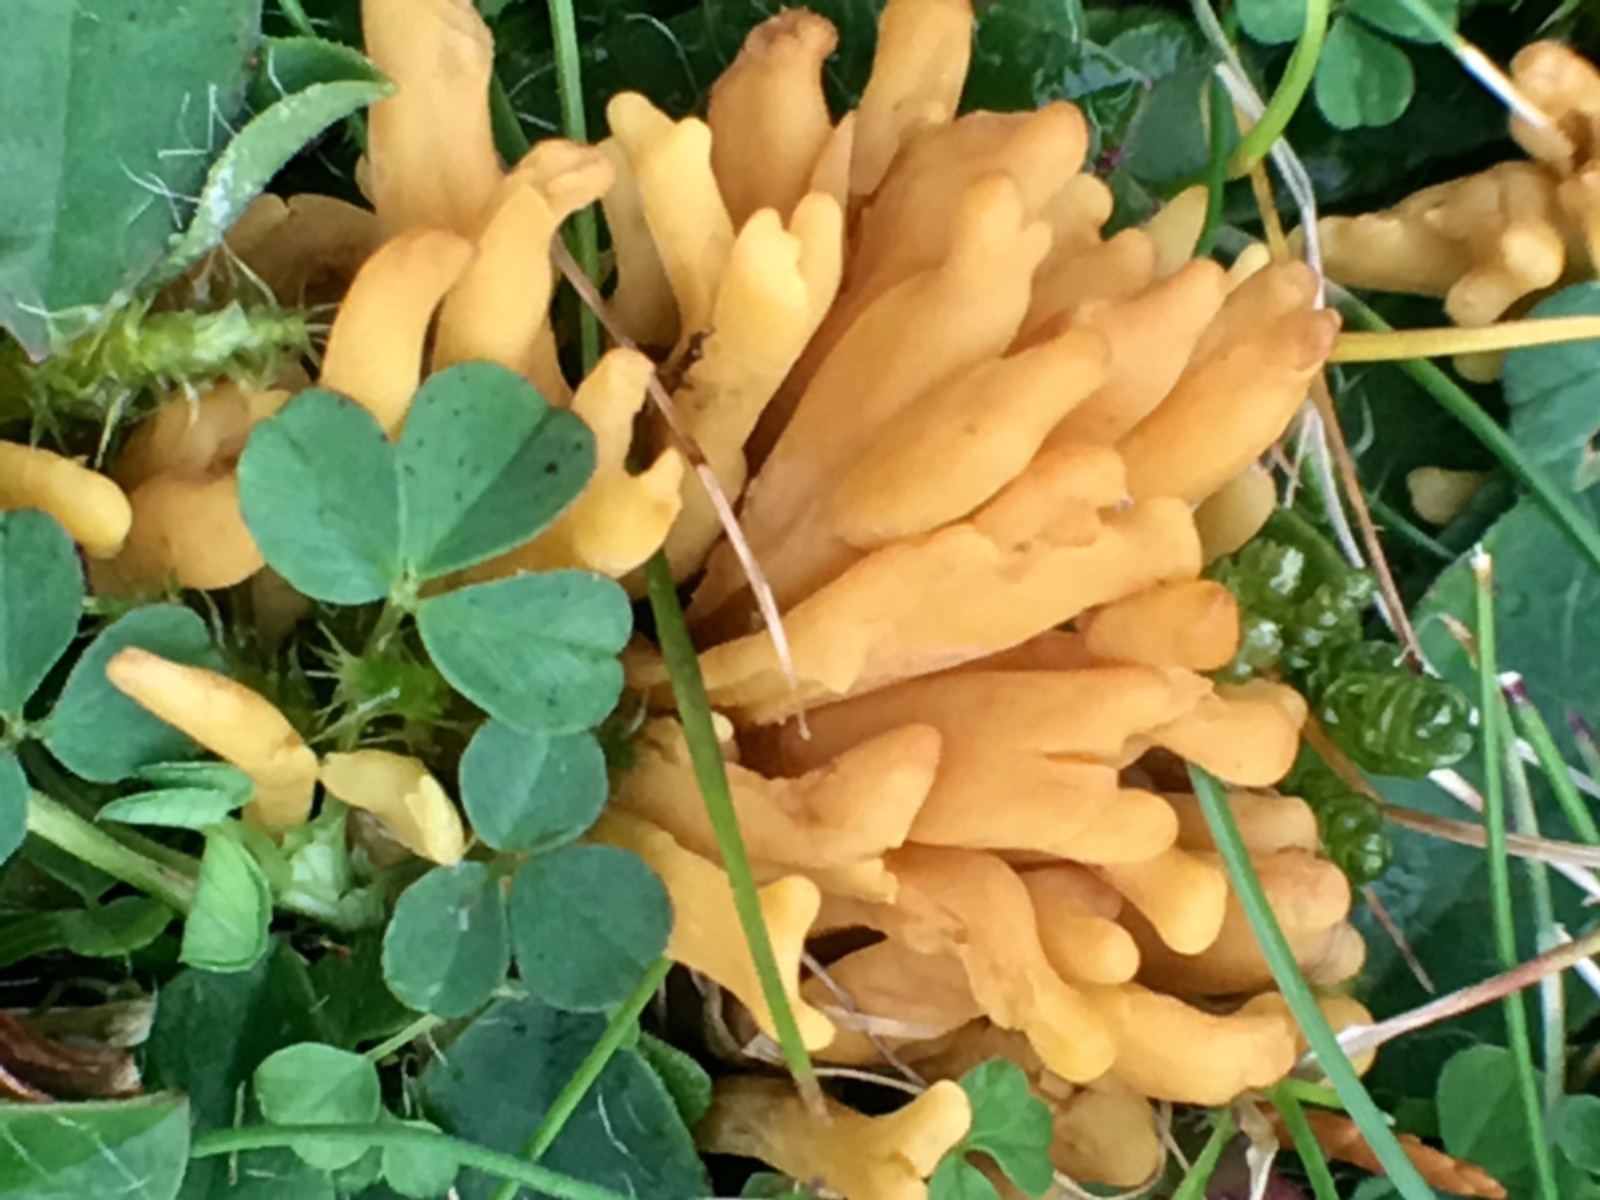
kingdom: Fungi
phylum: Basidiomycota
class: Agaricomycetes
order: Agaricales
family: Clavariaceae
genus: Clavulinopsis
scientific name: Clavulinopsis corniculata
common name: eng-køllesvamp
